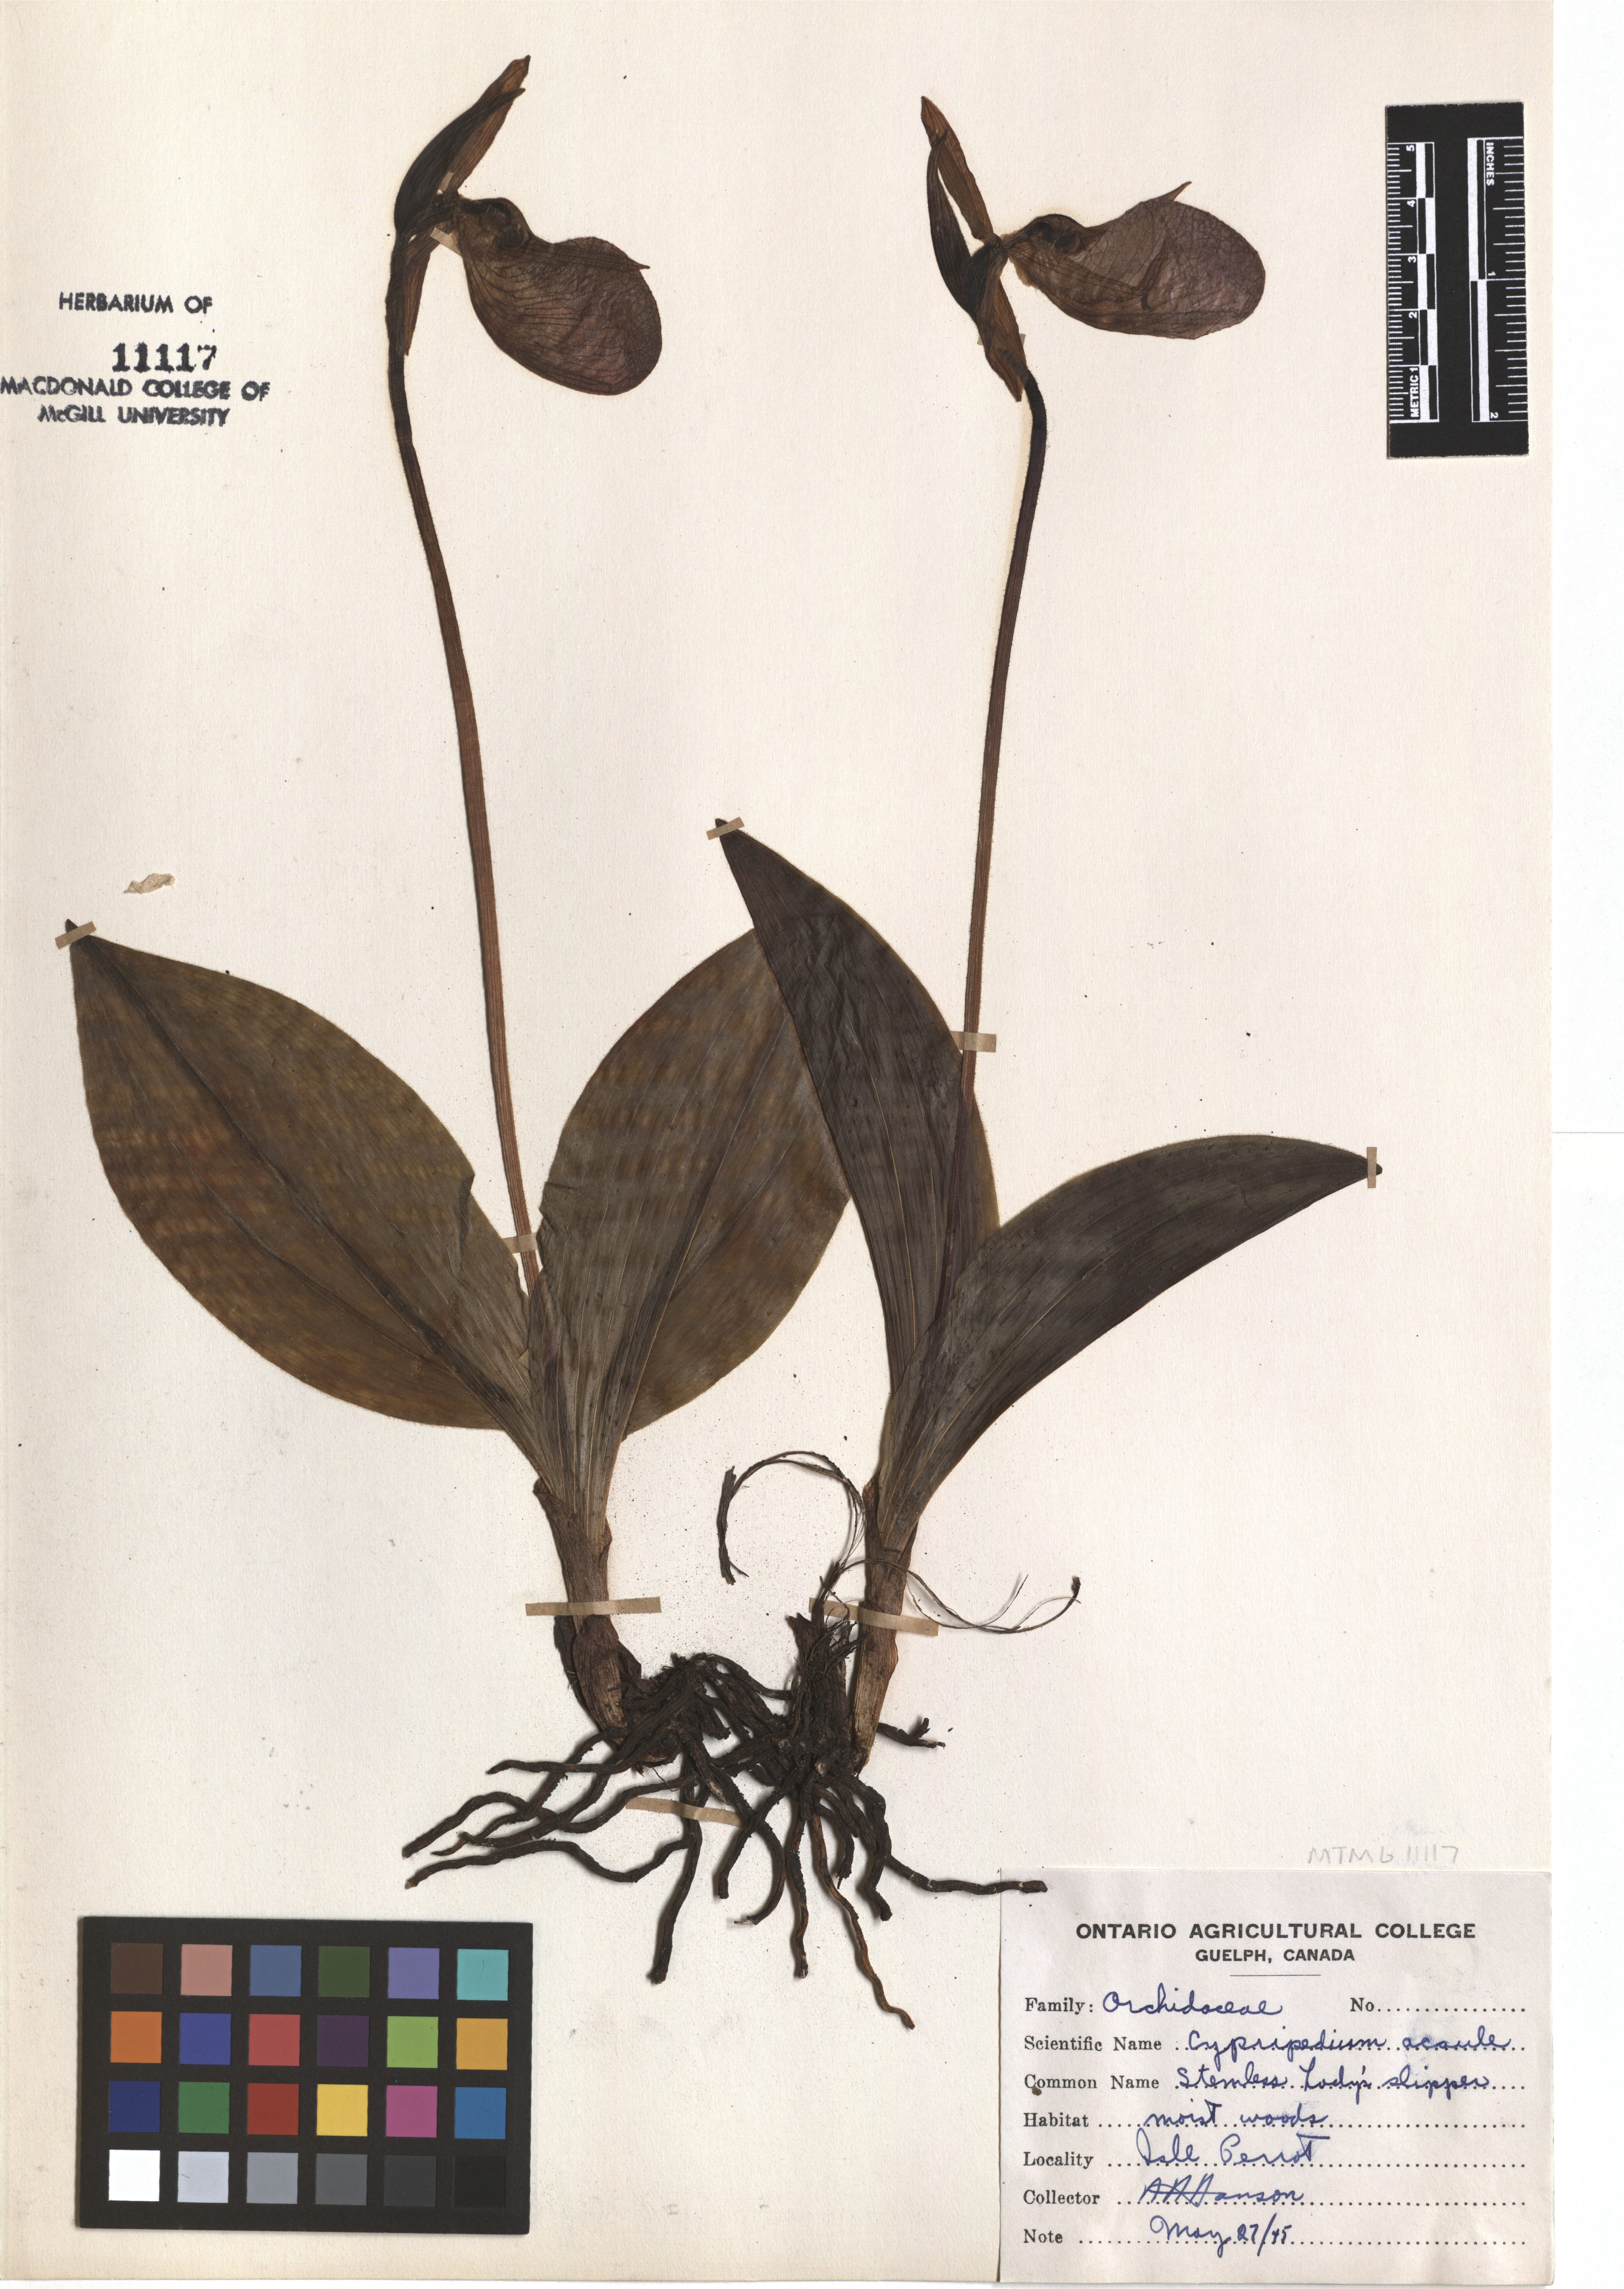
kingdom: Plantae
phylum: Tracheophyta
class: Liliopsida
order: Asparagales
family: Orchidaceae
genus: Cypripedium
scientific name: Cypripedium acaule
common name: Pink lady's-slipper
